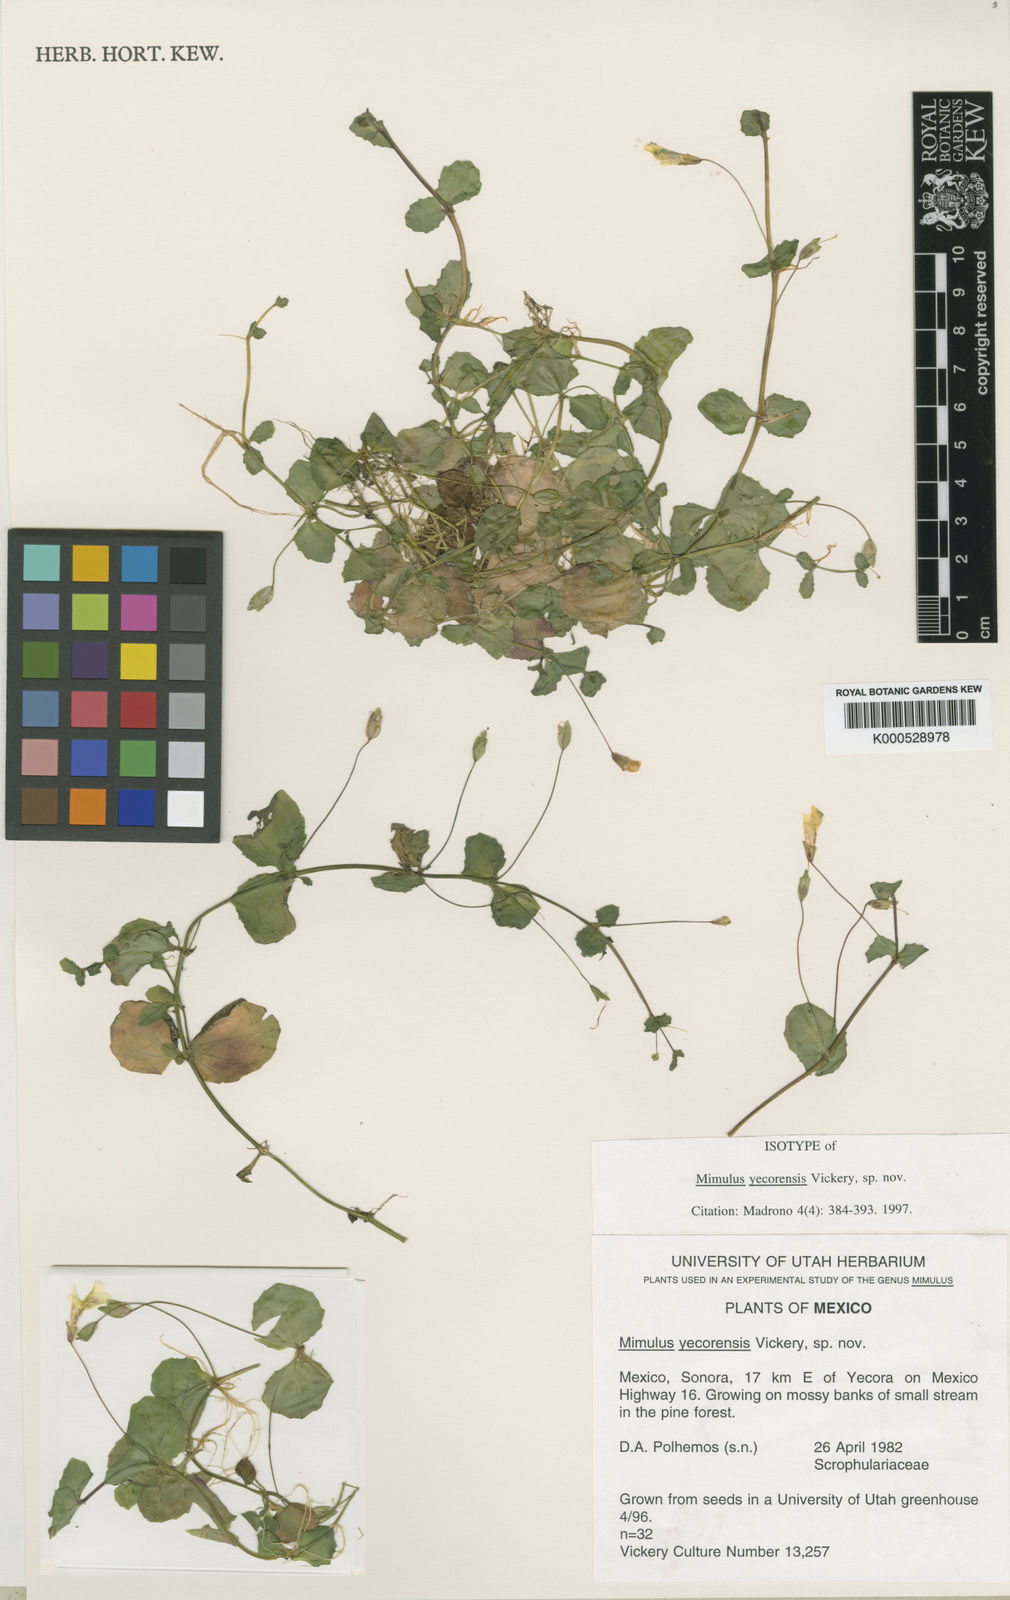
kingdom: Plantae
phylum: Tracheophyta
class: Magnoliopsida
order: Lamiales
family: Phrymaceae
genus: Erythranthe
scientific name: Erythranthe pallens
